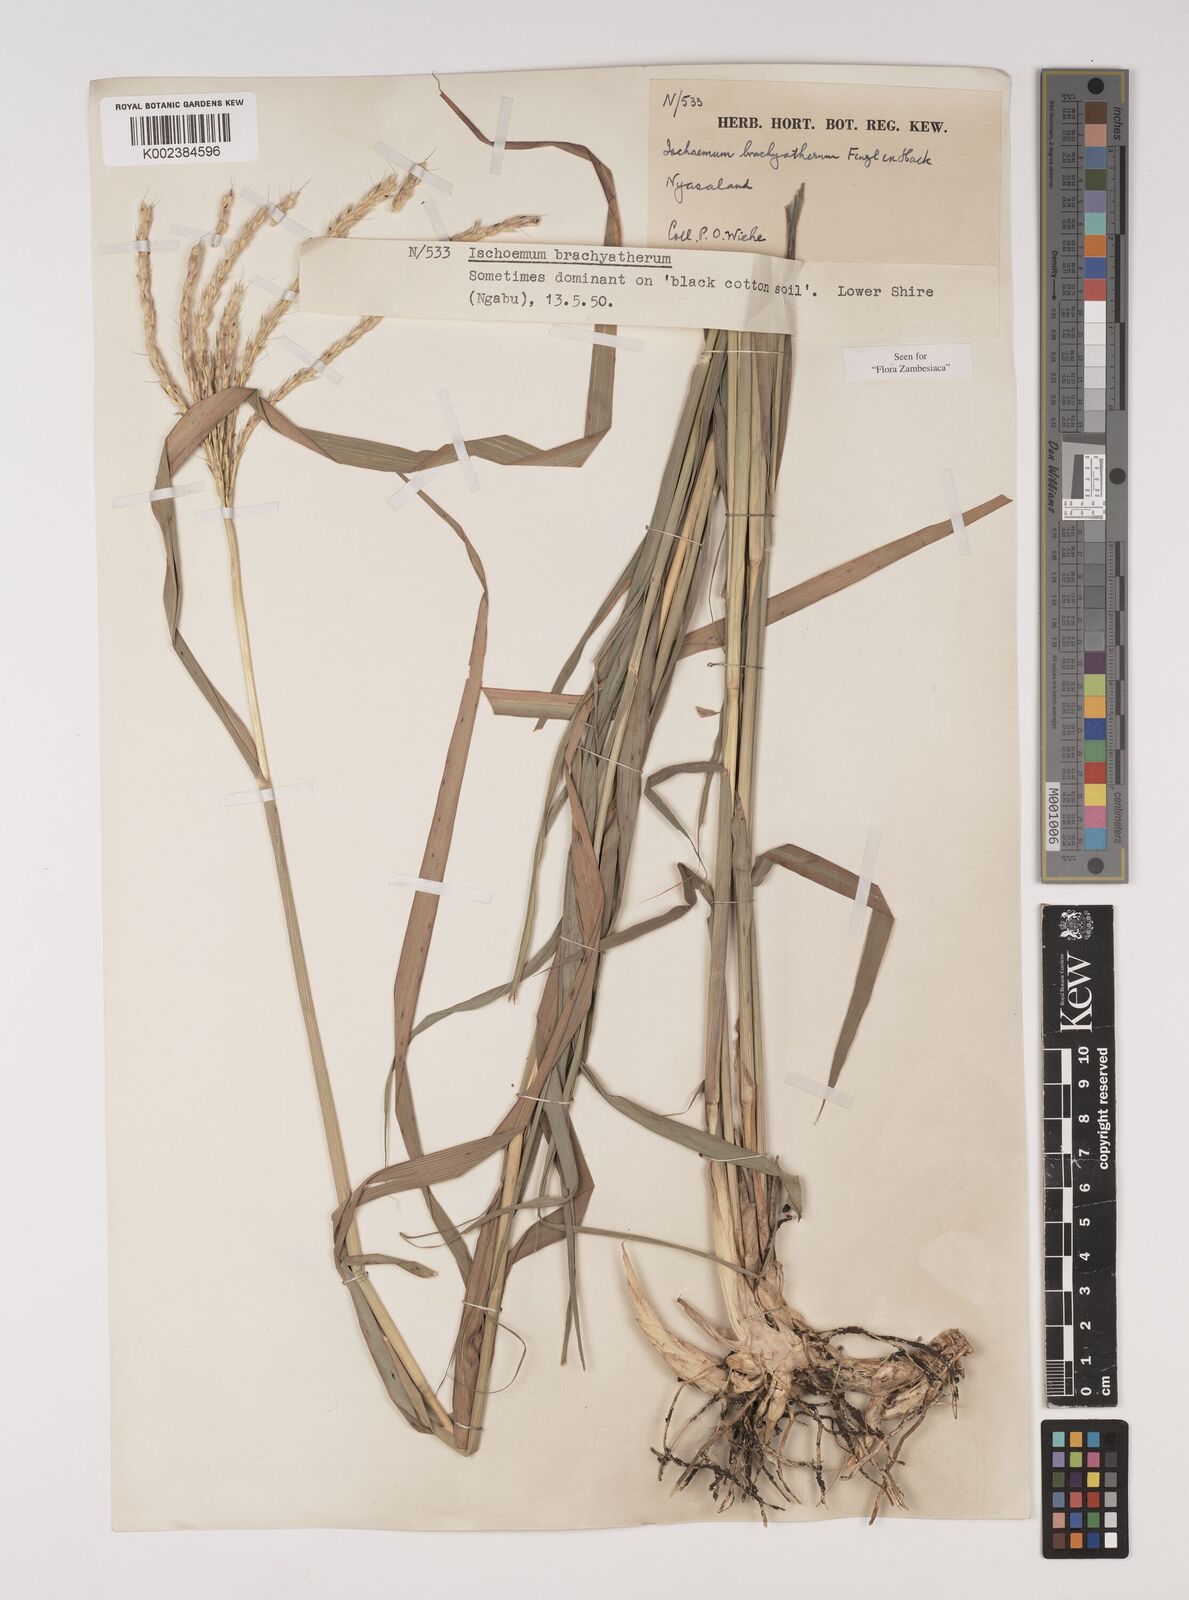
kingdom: Plantae
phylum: Tracheophyta
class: Liliopsida
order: Poales
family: Poaceae
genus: Ischaemum
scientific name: Ischaemum afrum
